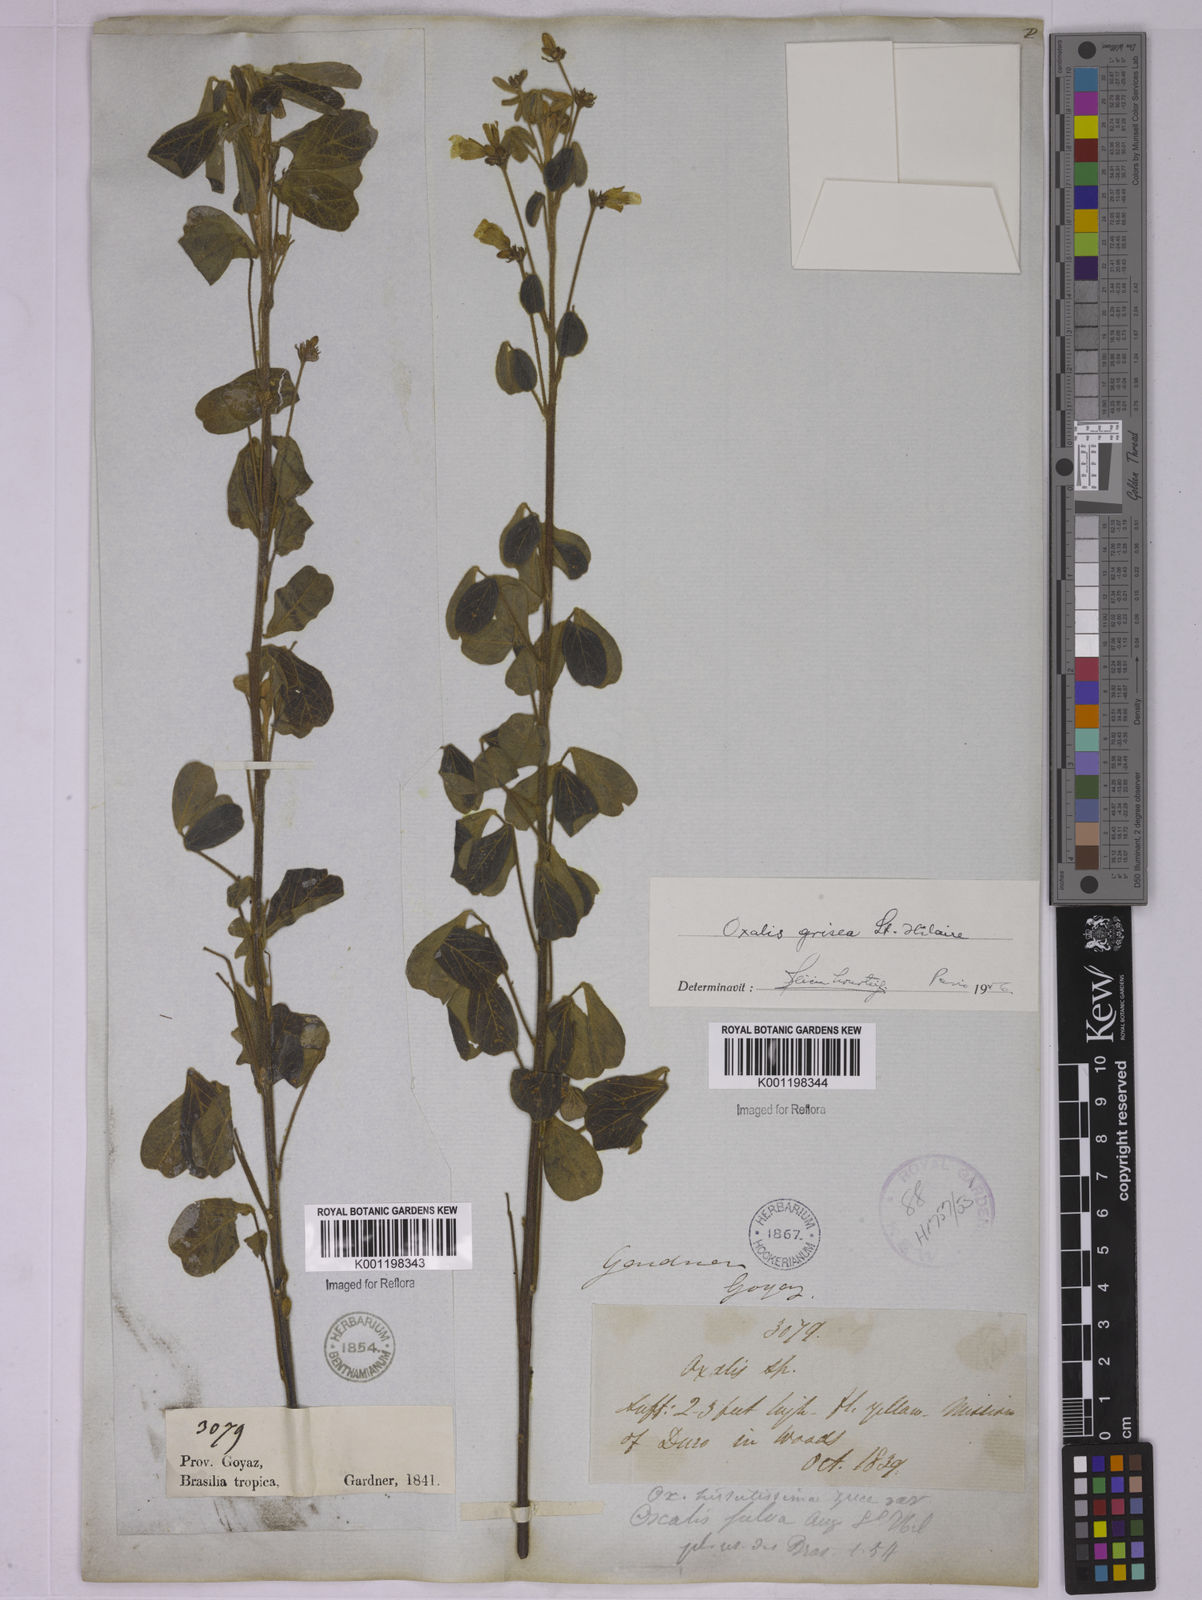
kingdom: Plantae
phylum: Tracheophyta
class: Magnoliopsida
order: Oxalidales
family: Oxalidaceae
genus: Oxalis
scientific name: Oxalis grisea
